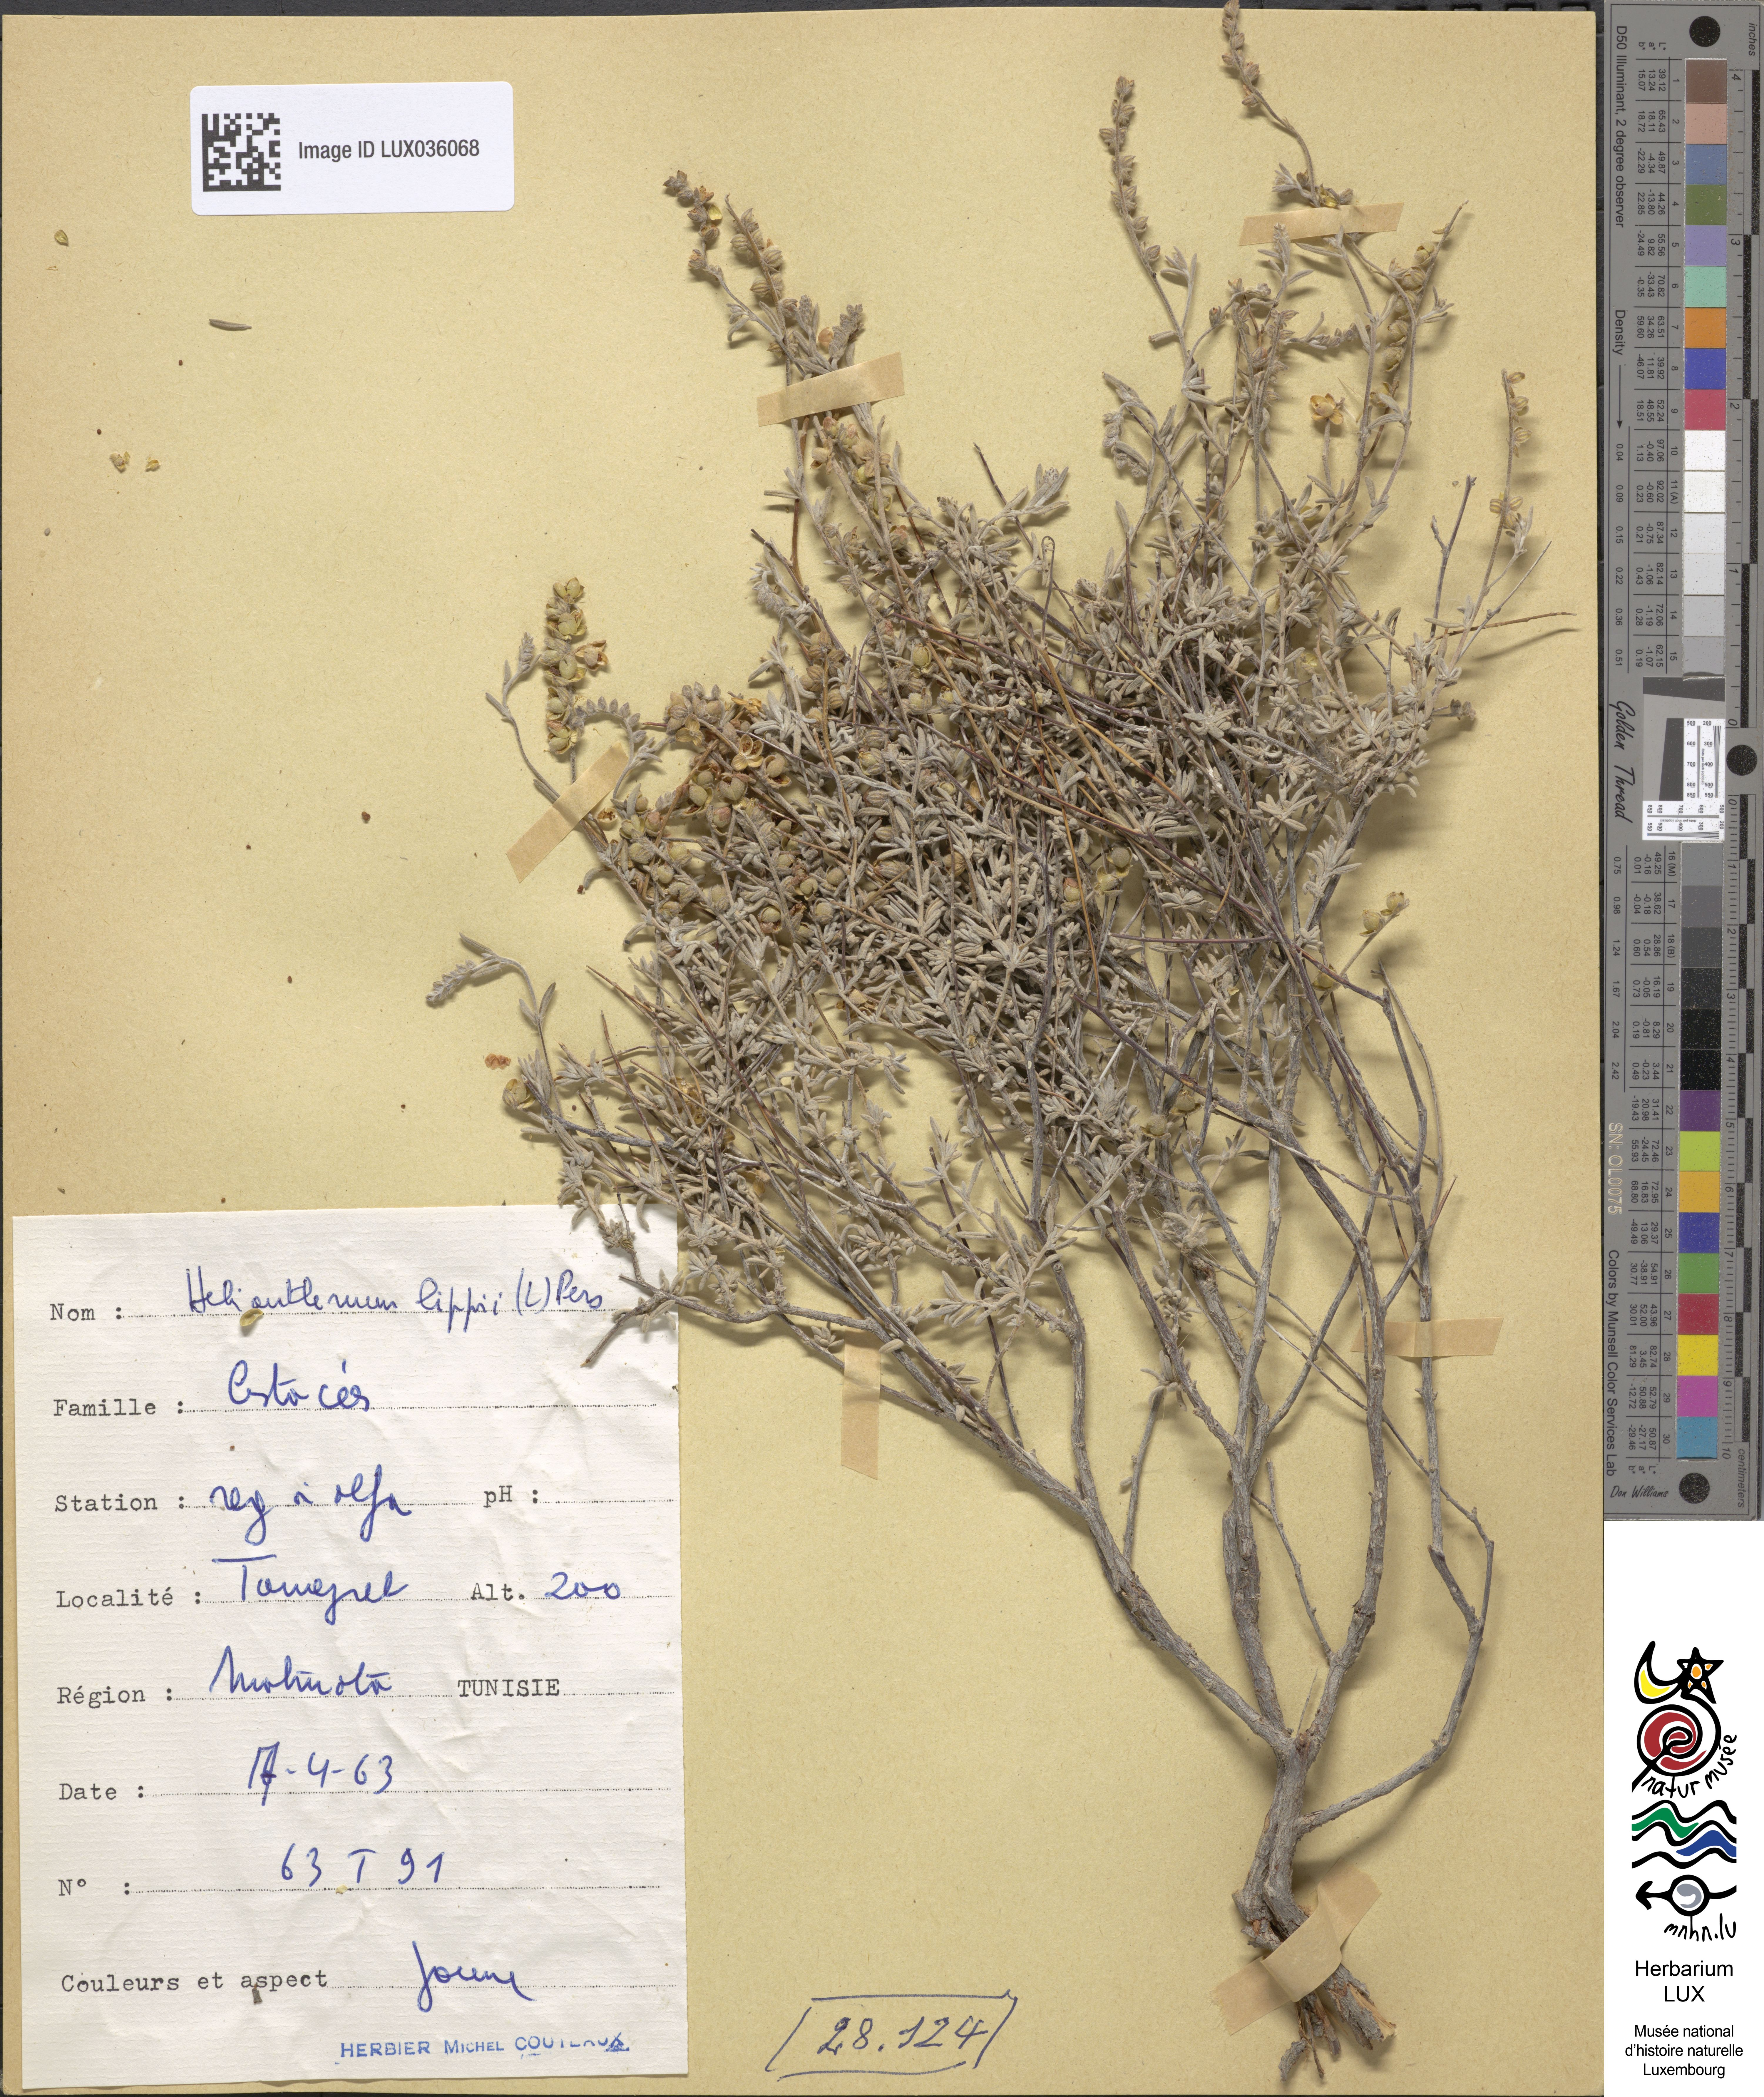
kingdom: Plantae
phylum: Tracheophyta
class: Magnoliopsida
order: Malvales
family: Cistaceae
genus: Helianthemum
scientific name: Helianthemum lippii
